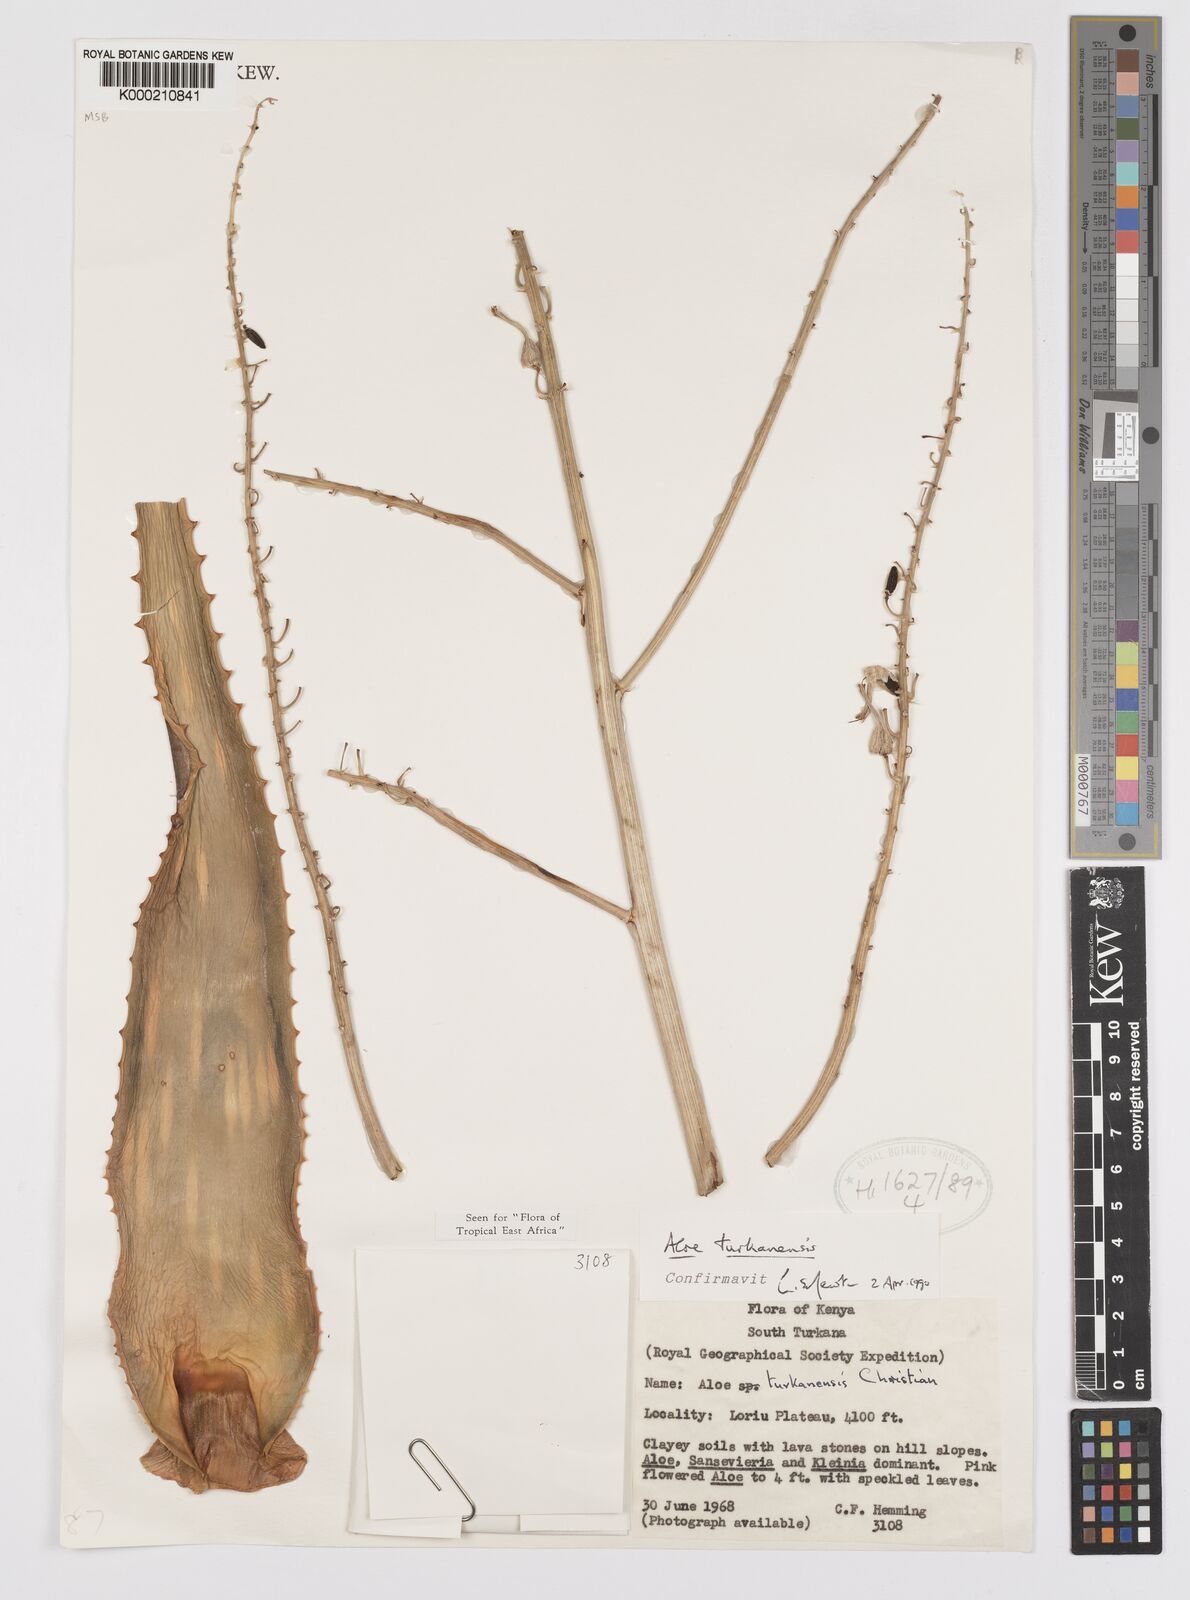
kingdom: Plantae
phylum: Tracheophyta
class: Liliopsida
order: Asparagales
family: Asphodelaceae
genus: Aloe
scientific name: Aloe turkanensis
